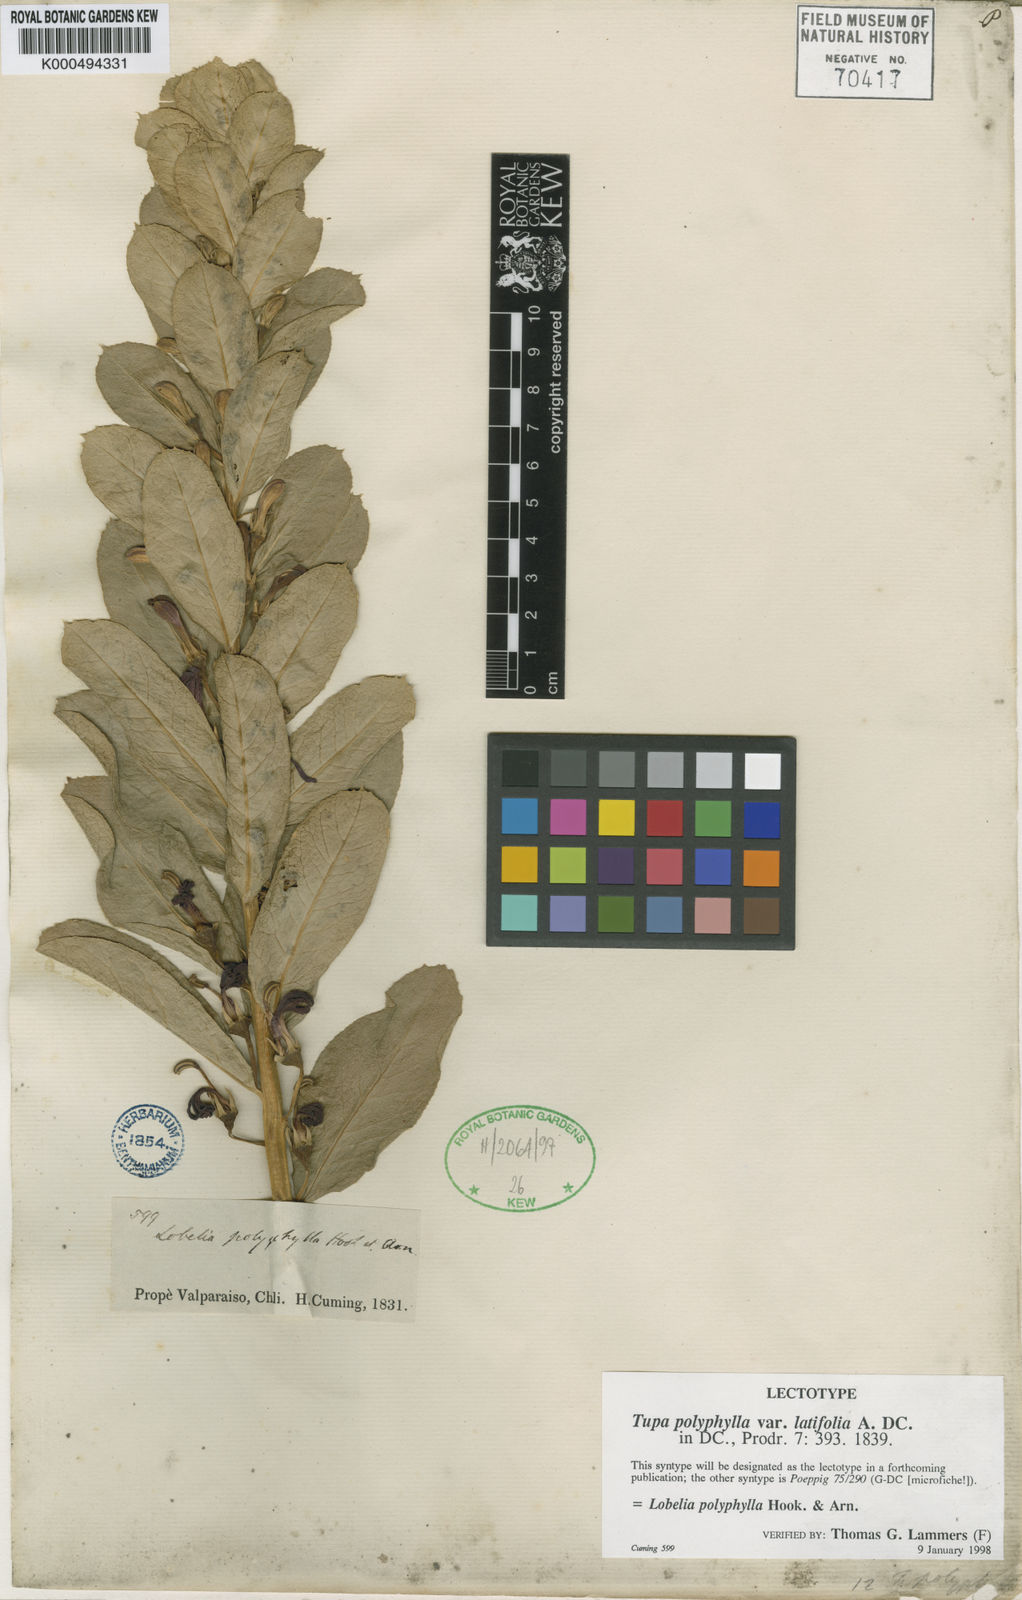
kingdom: Plantae
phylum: Tracheophyta
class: Magnoliopsida
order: Asterales
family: Campanulaceae
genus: Lobelia
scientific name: Lobelia polyphylla
